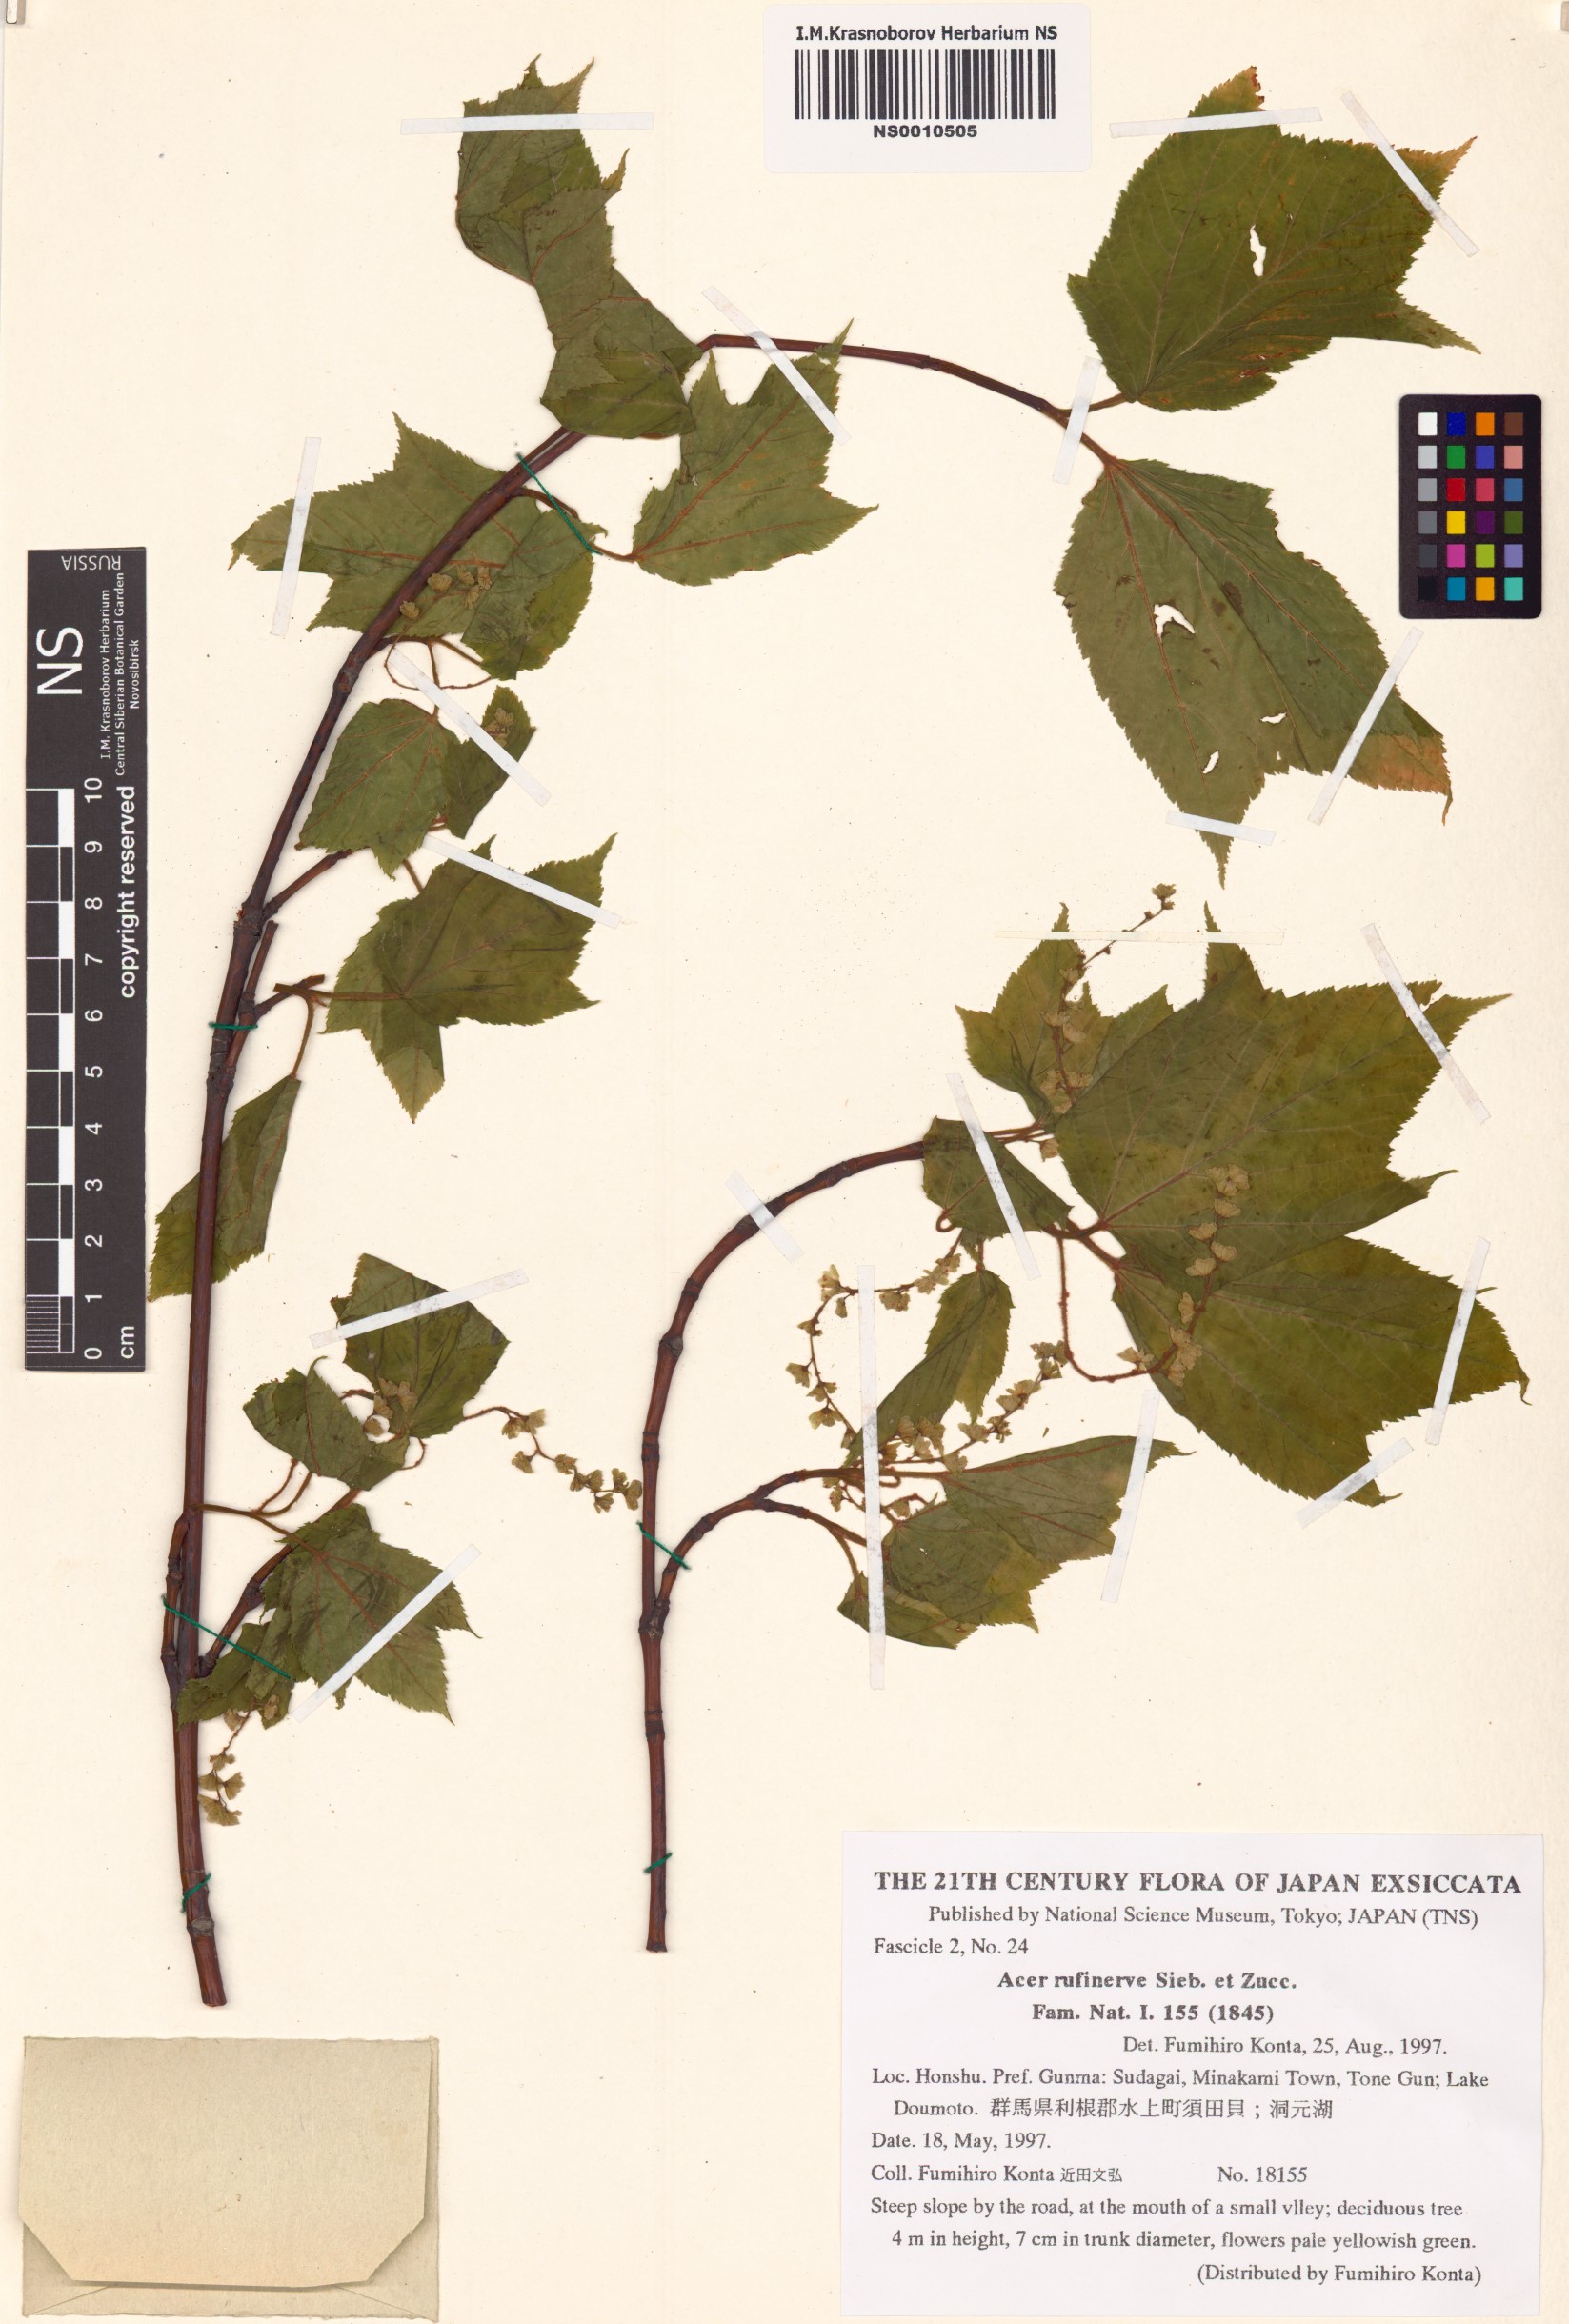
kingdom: Plantae
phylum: Tracheophyta
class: Magnoliopsida
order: Sapindales
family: Sapindaceae
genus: Acer
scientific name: Acer rufinerve
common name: Red veined maple
